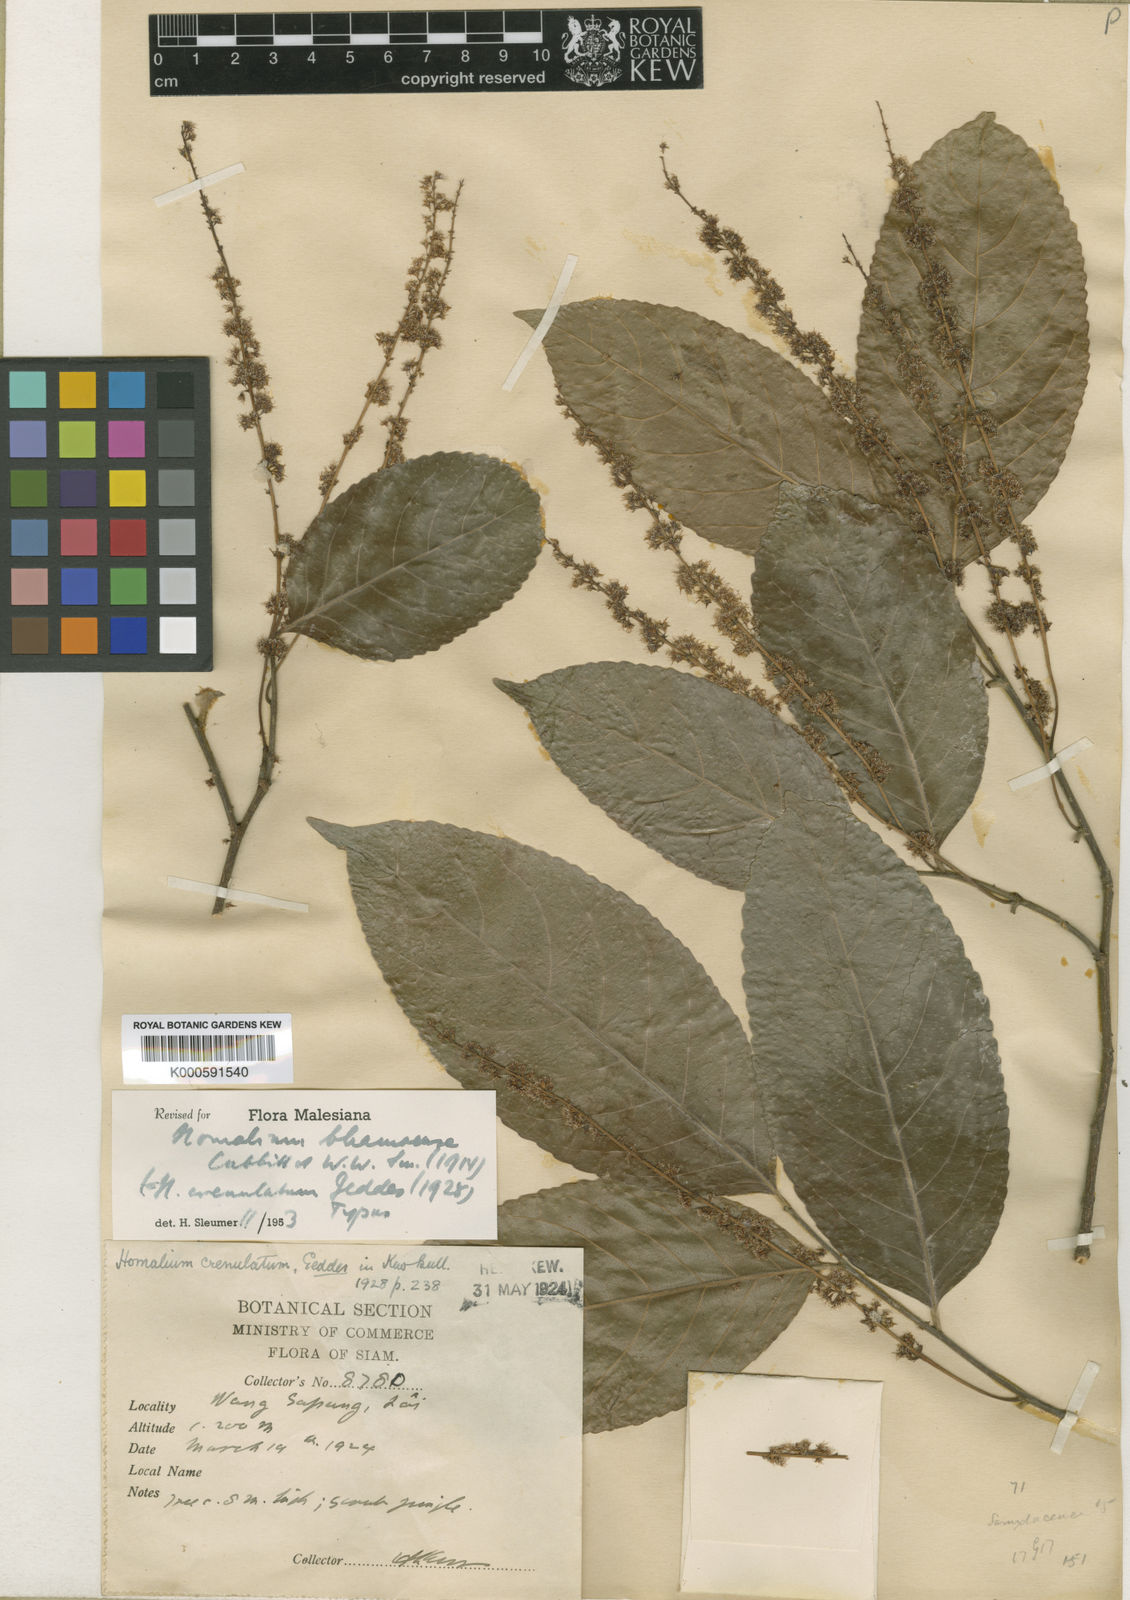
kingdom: Plantae
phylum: Tracheophyta
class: Magnoliopsida
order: Malpighiales
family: Salicaceae
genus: Homalium
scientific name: Homalium ceylanicum
